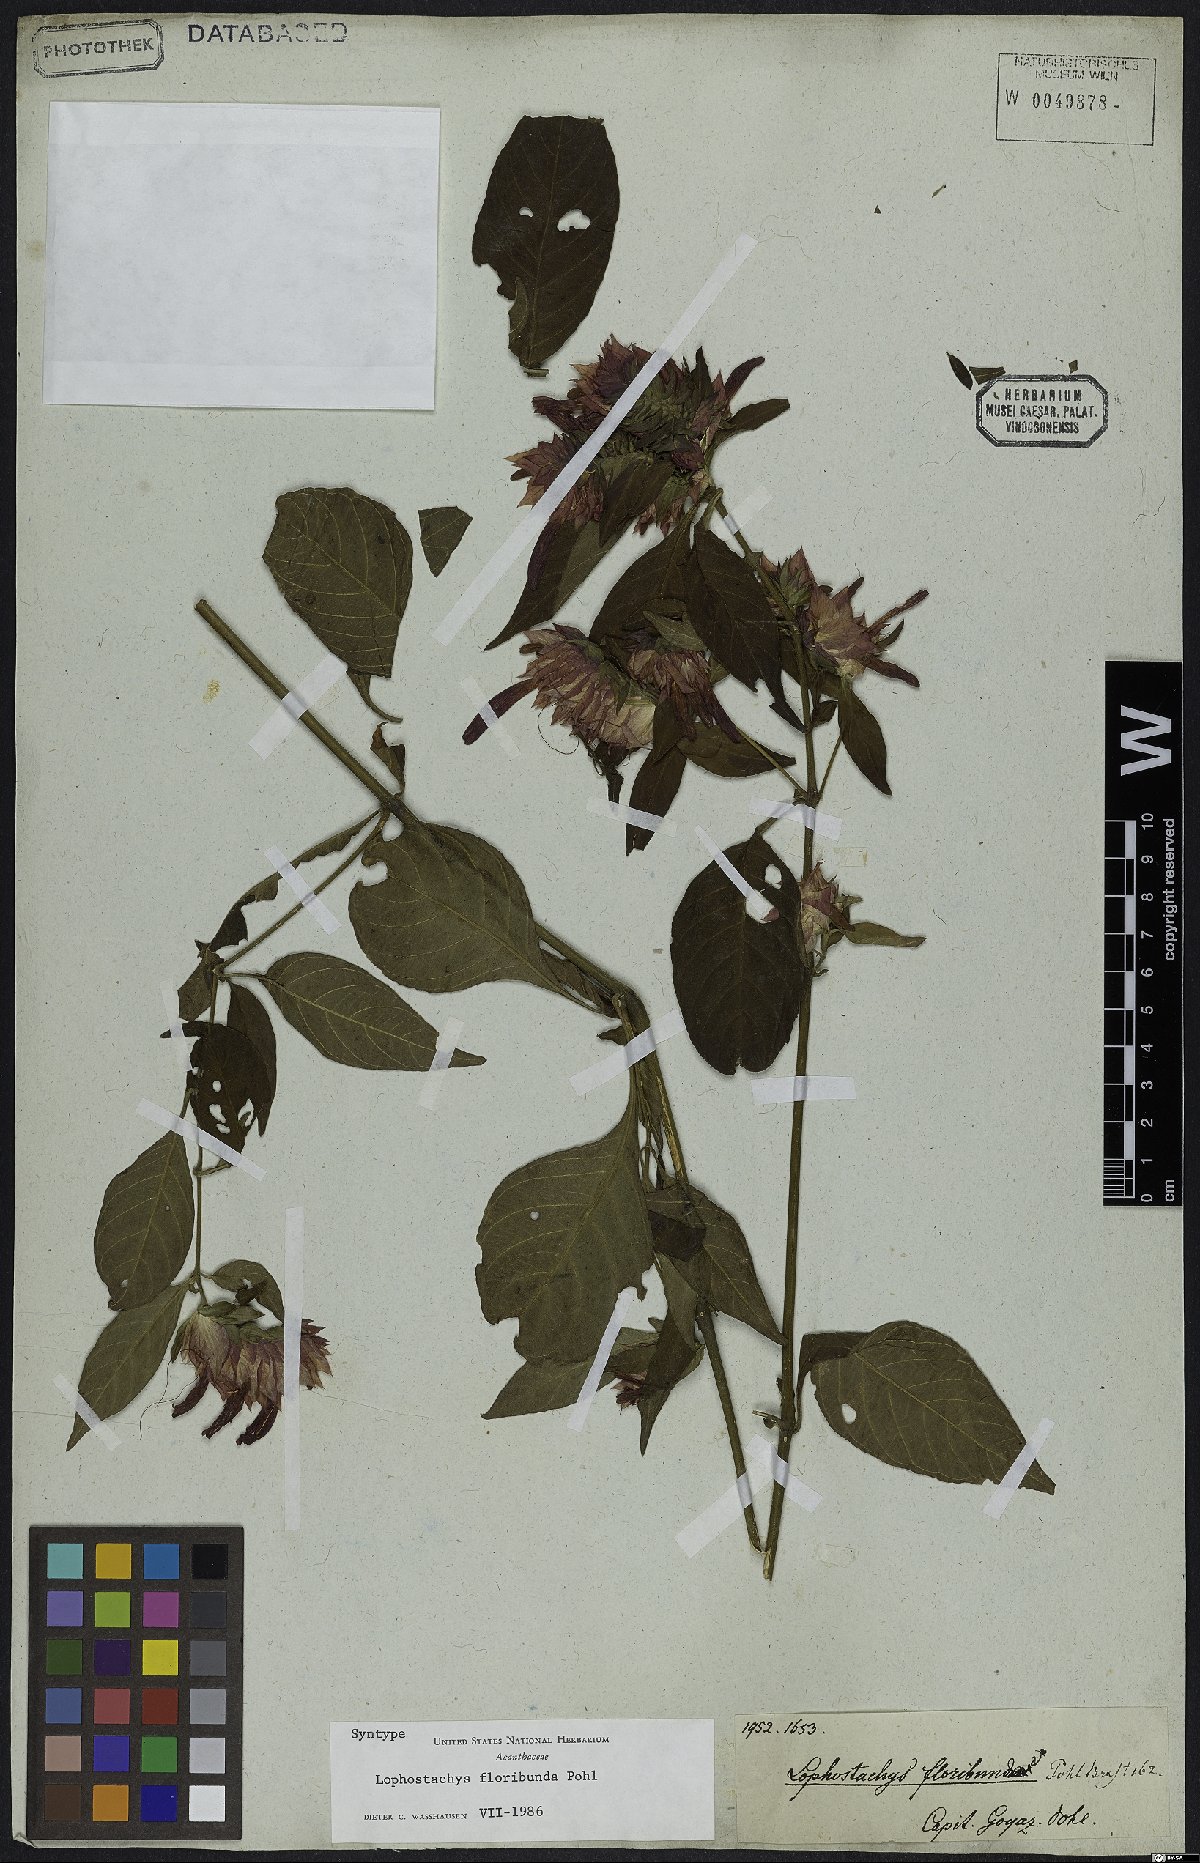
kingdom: Plantae
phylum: Tracheophyta
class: Magnoliopsida
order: Lamiales
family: Acanthaceae
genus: Lepidagathis
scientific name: Lepidagathis floribunda
